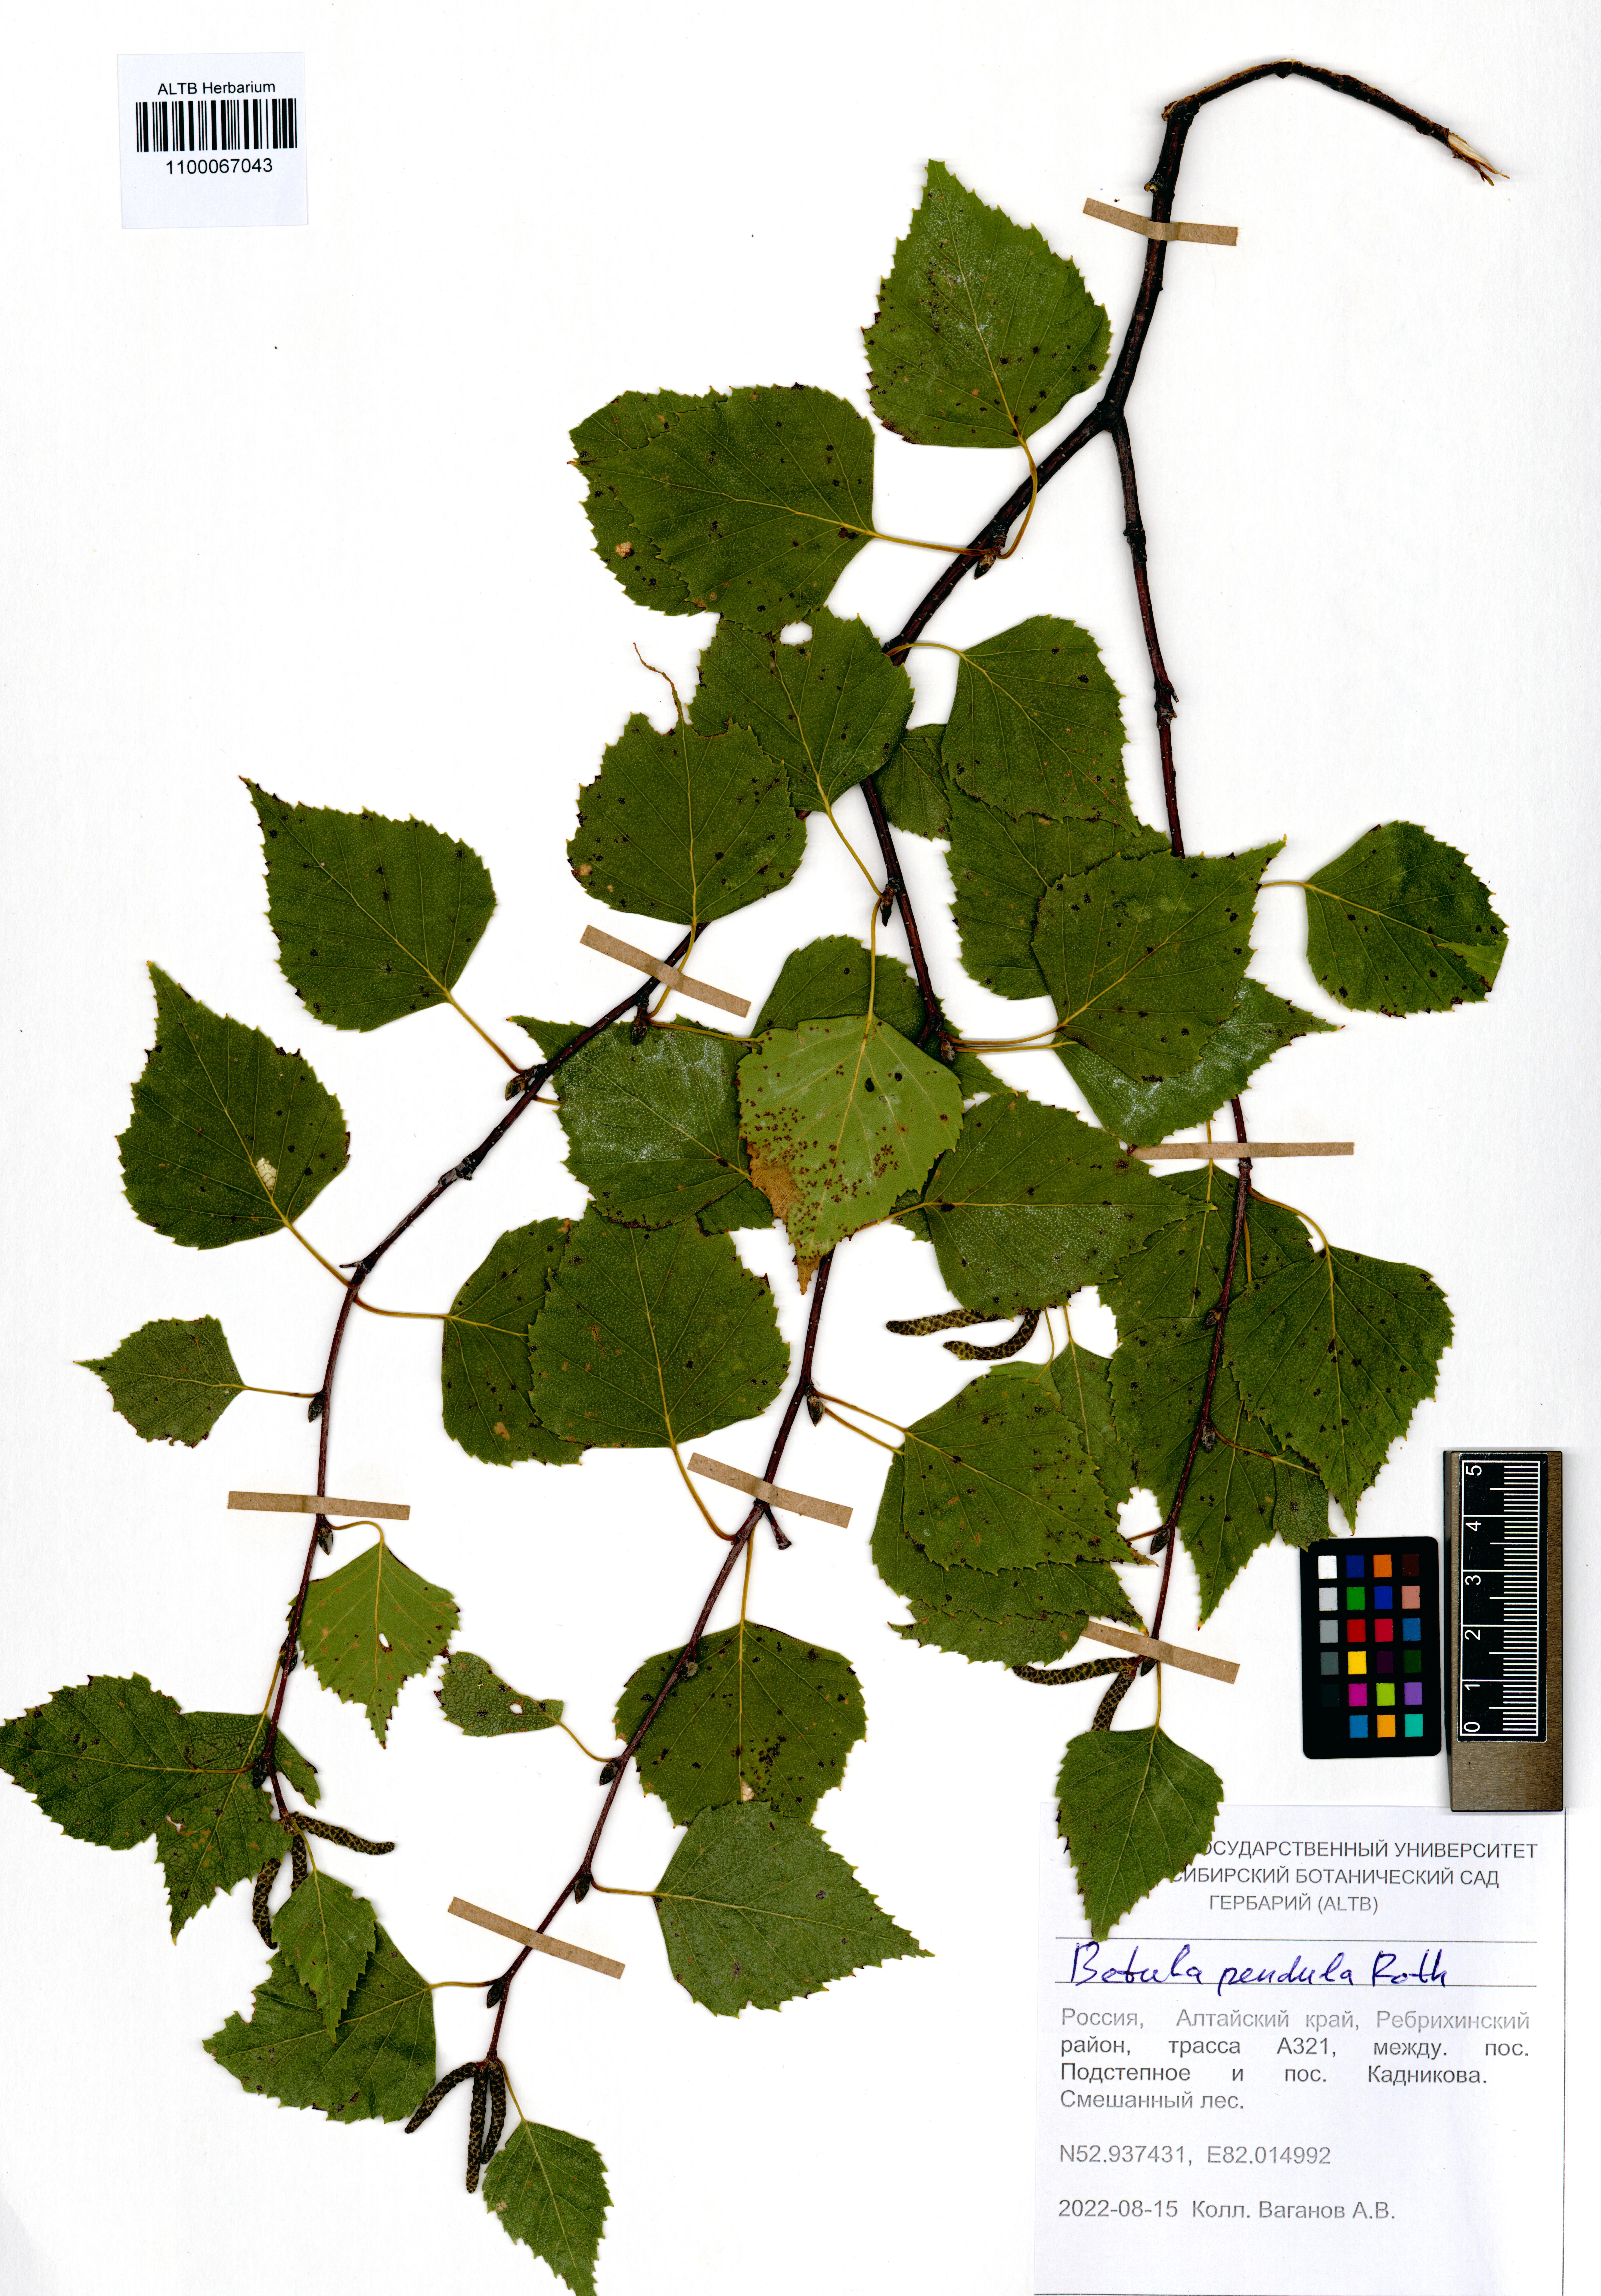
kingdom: Plantae
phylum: Tracheophyta
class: Magnoliopsida
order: Fagales
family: Betulaceae
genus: Betula
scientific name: Betula pendula
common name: Silver birch
